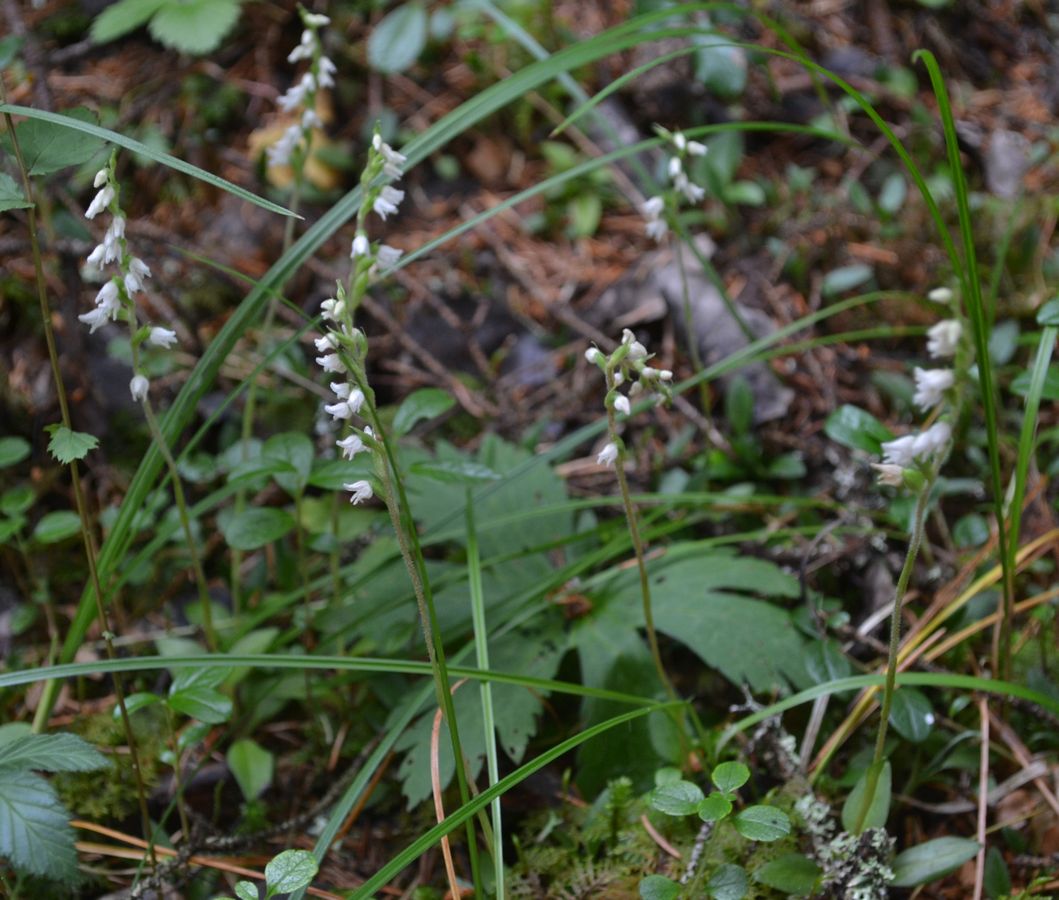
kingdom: Plantae
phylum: Tracheophyta
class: Liliopsida
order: Asparagales
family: Orchidaceae
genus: Goodyera
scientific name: Goodyera repens
